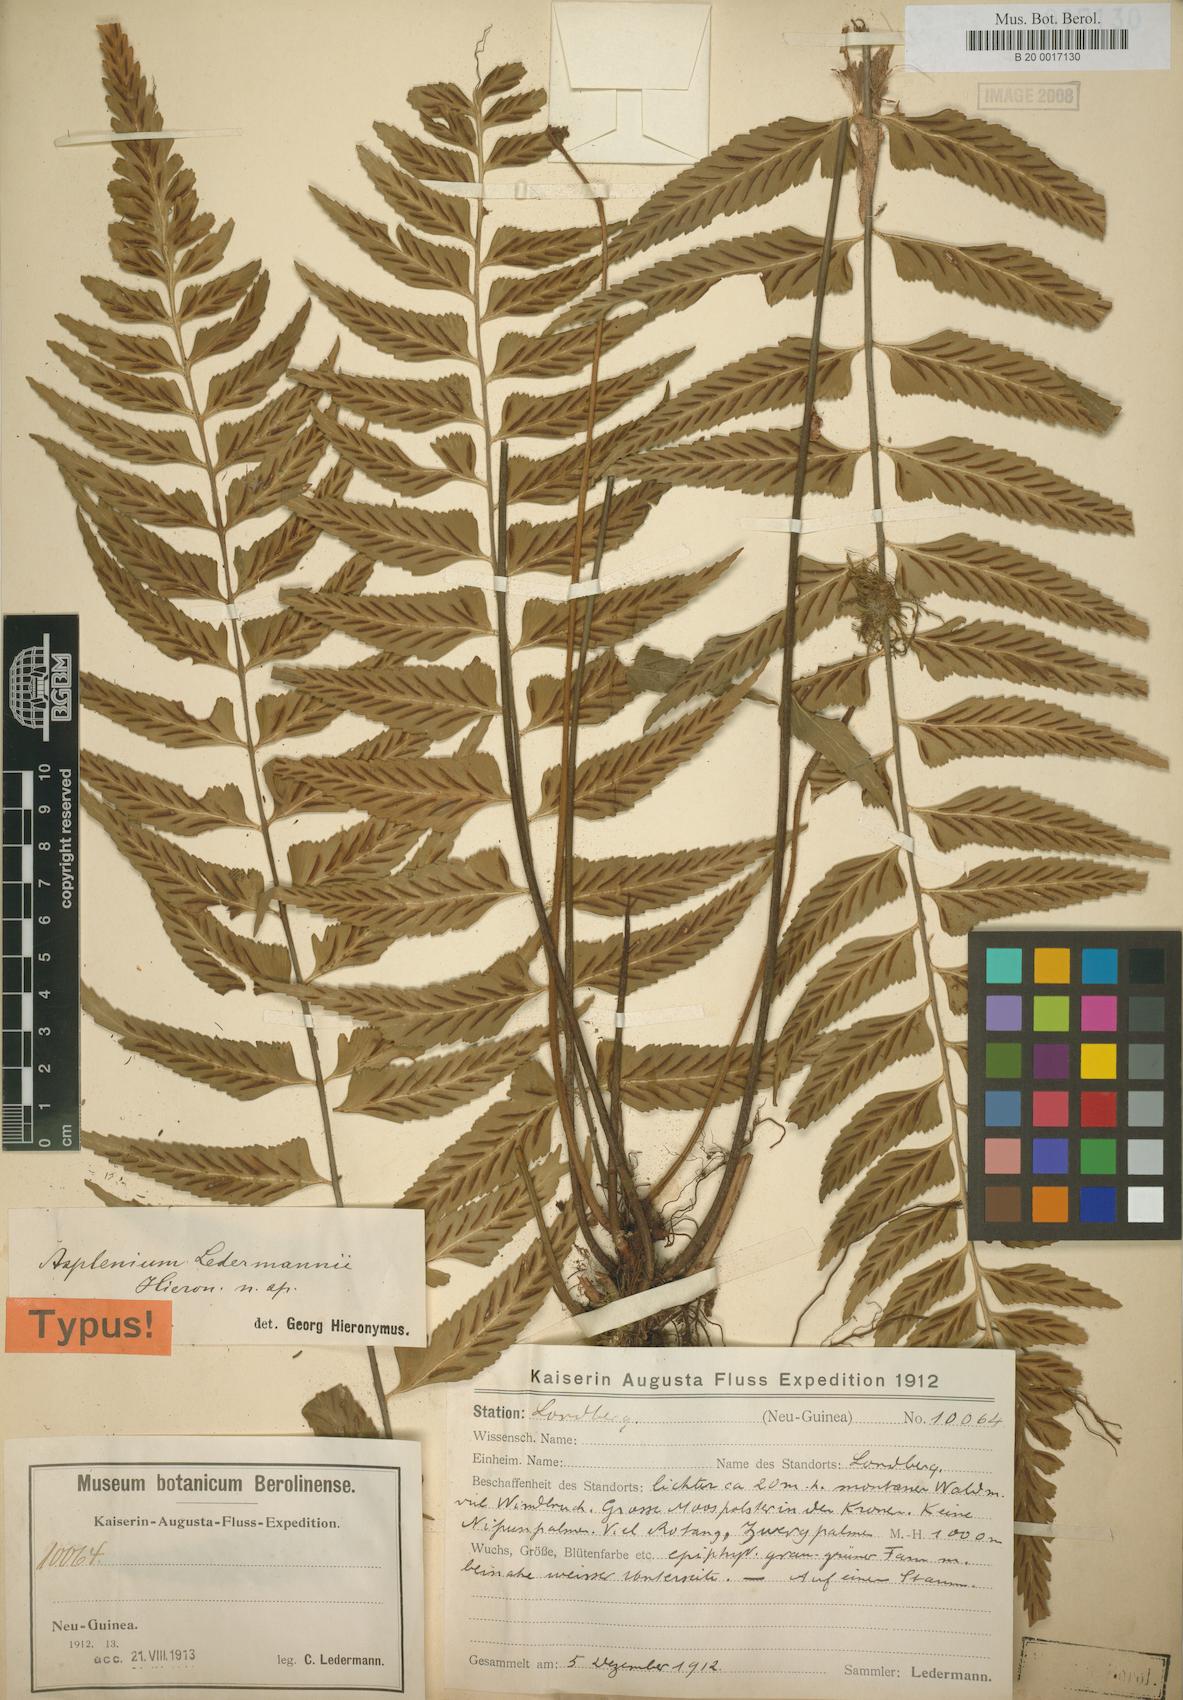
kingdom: Plantae
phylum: Tracheophyta
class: Polypodiopsida
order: Polypodiales
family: Aspleniaceae
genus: Asplenium
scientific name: Asplenium lobulatum
